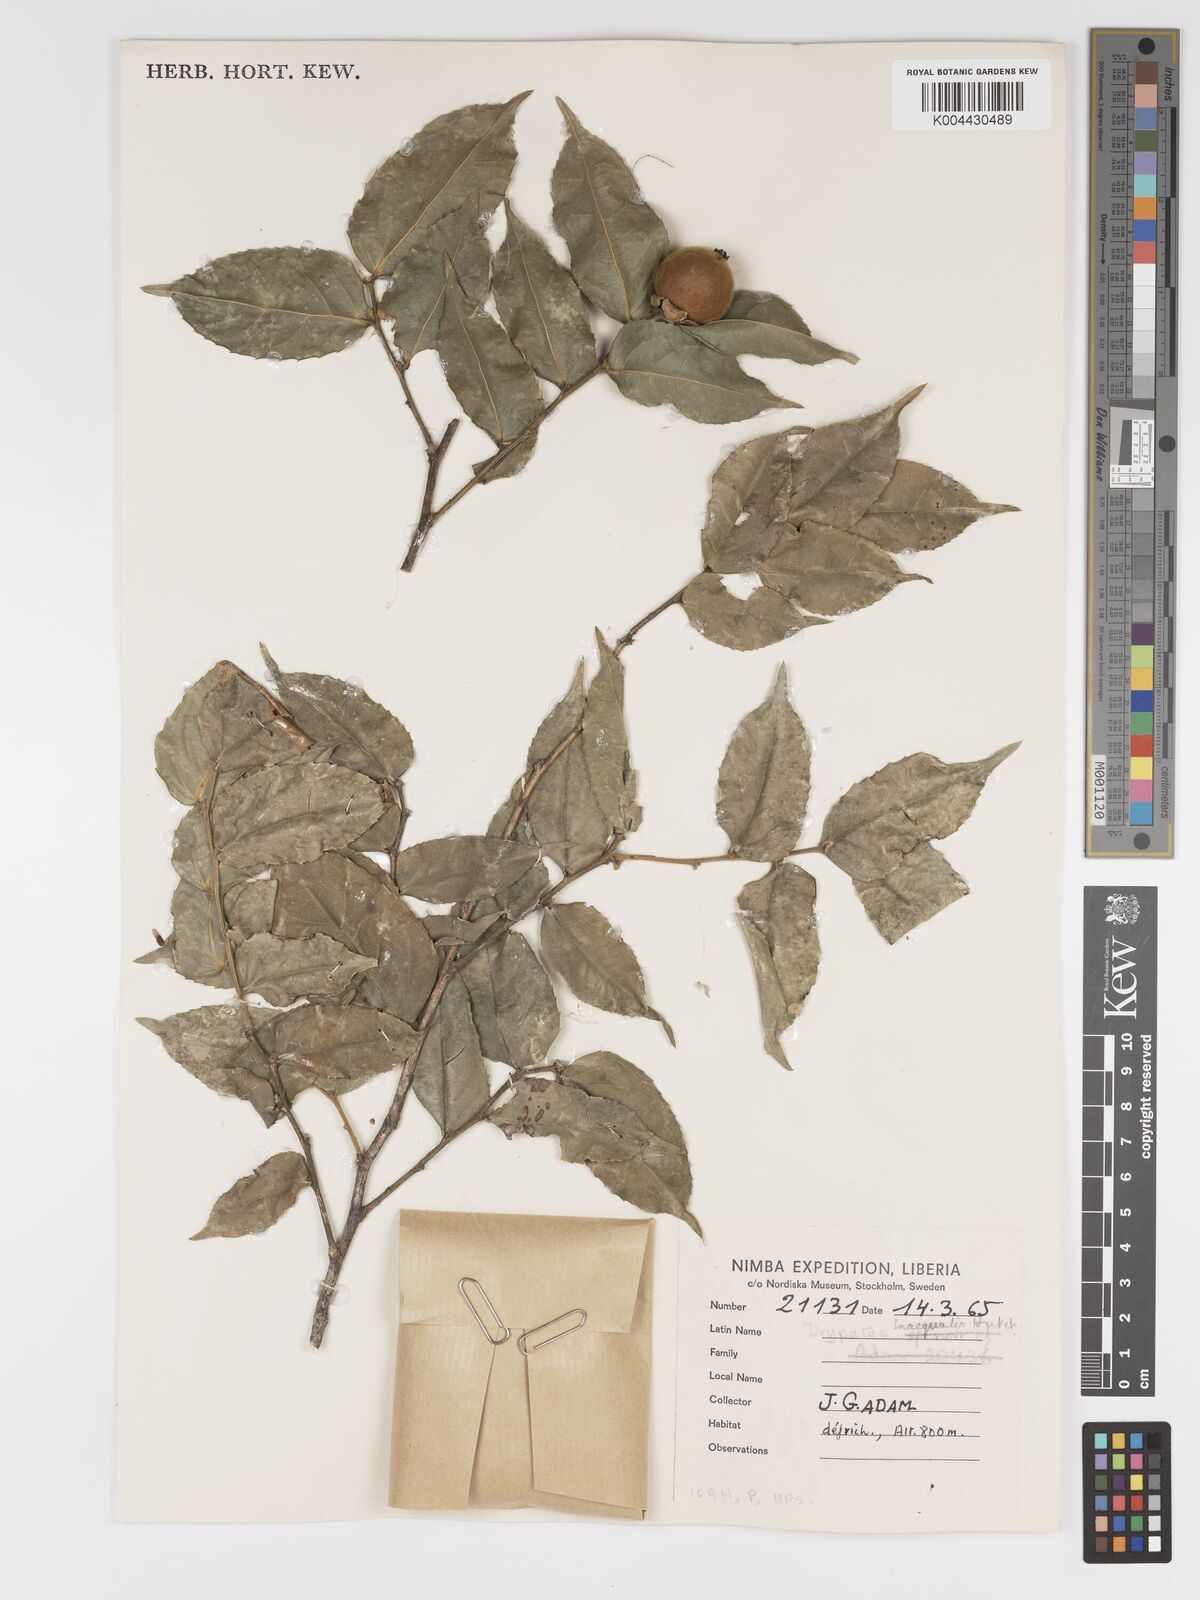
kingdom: Plantae
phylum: Tracheophyta
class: Magnoliopsida
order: Malpighiales
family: Putranjivaceae
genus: Drypetes
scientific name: Drypetes inaequalis
